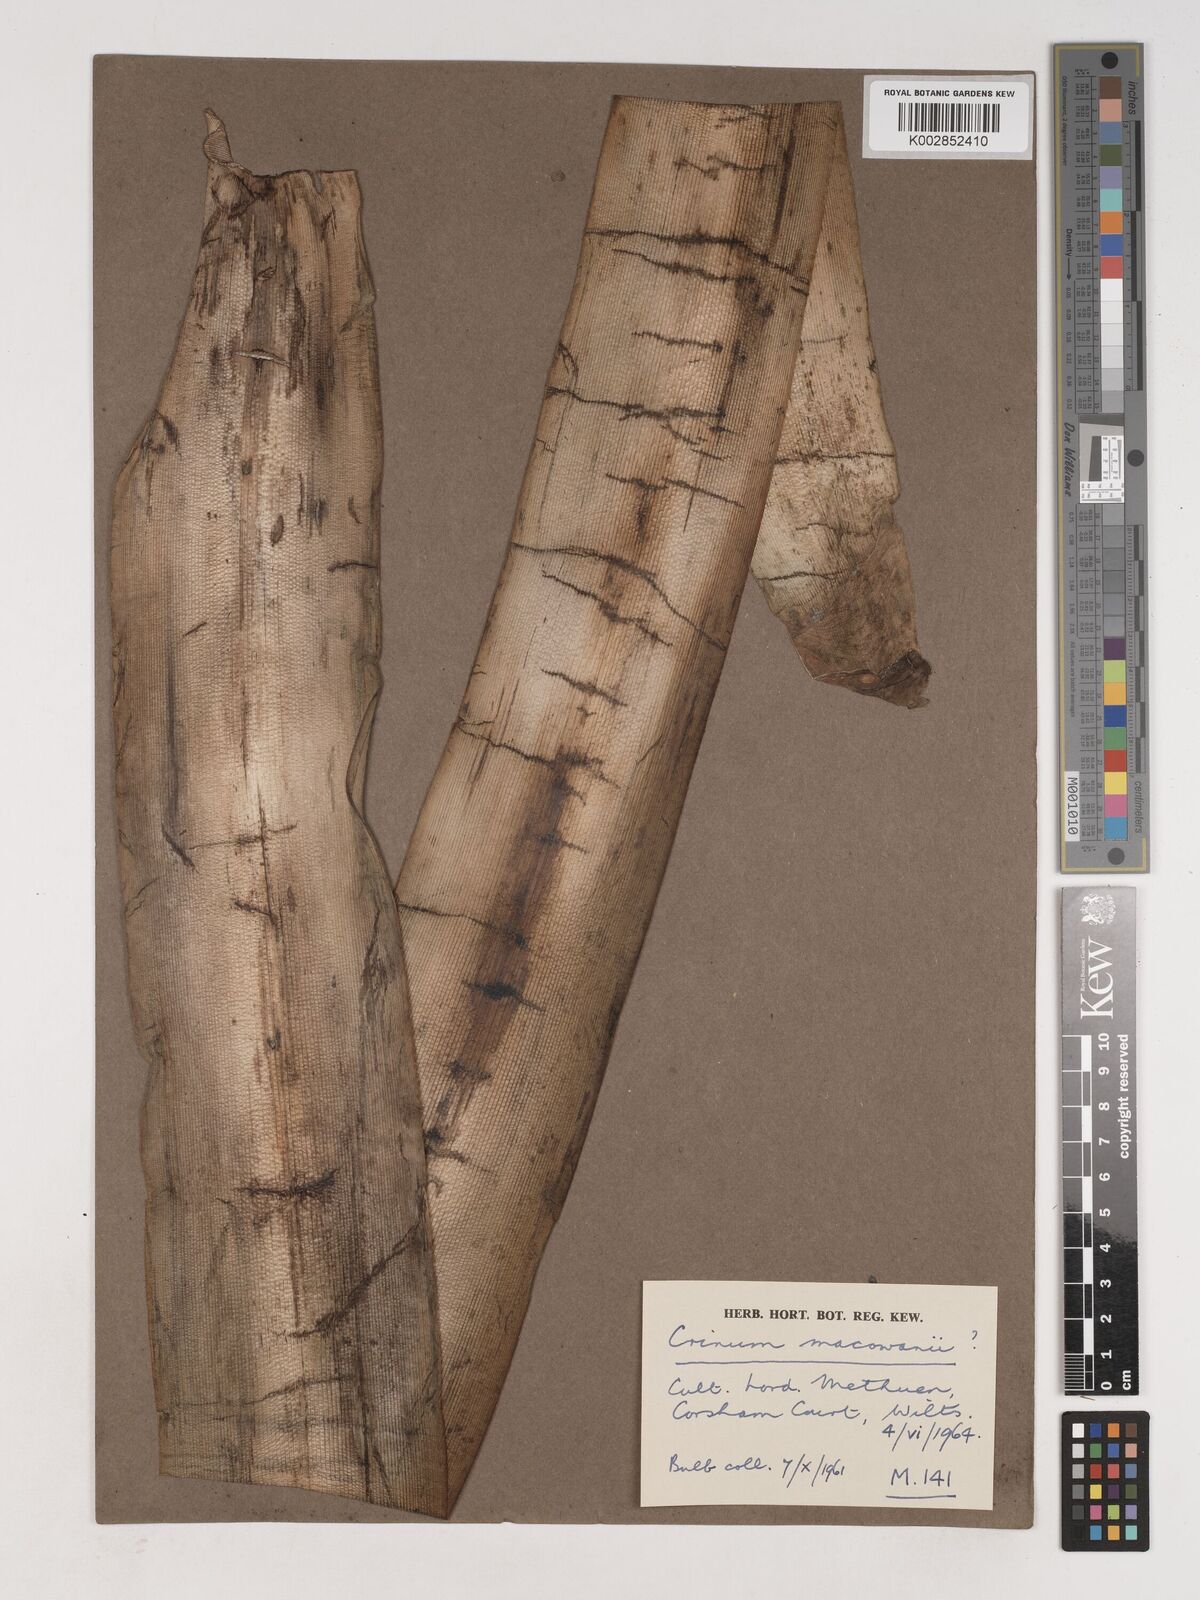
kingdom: Plantae
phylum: Tracheophyta
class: Liliopsida
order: Asparagales
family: Amaryllidaceae
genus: Crinum
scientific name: Crinum
